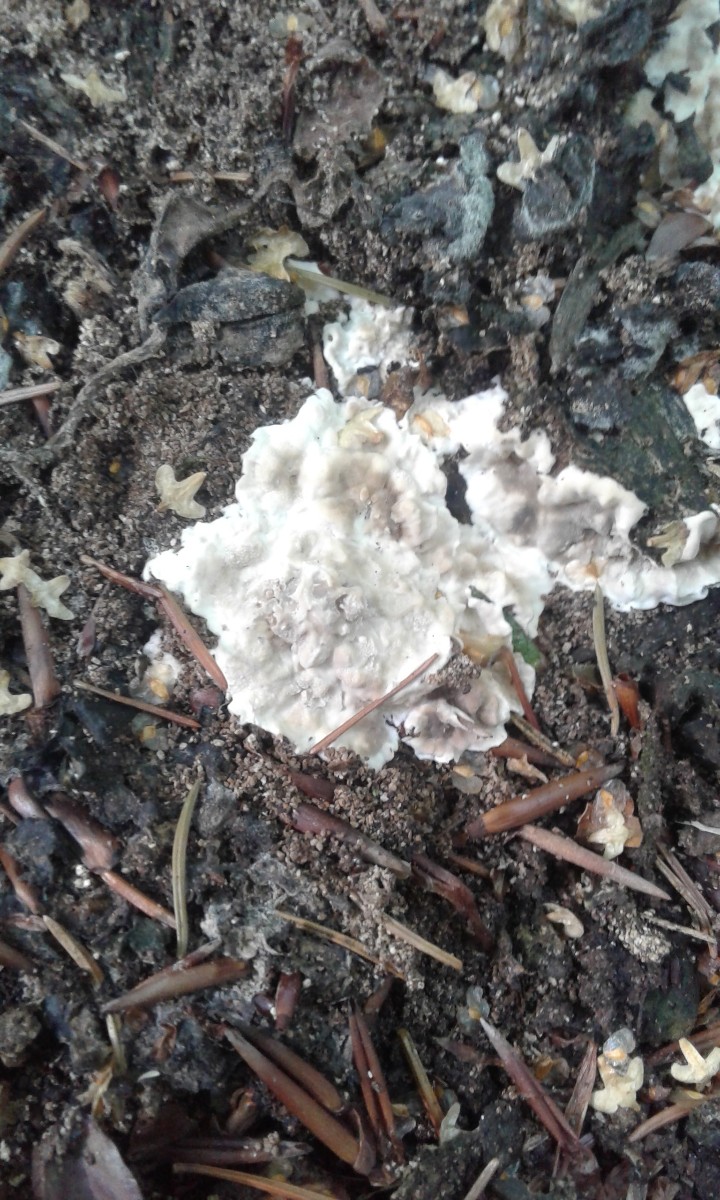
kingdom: Fungi
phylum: Ascomycota
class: Sordariomycetes
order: Xylariales
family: Xylariaceae
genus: Kretzschmaria
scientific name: Kretzschmaria deusta
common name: stor kulsvamp
